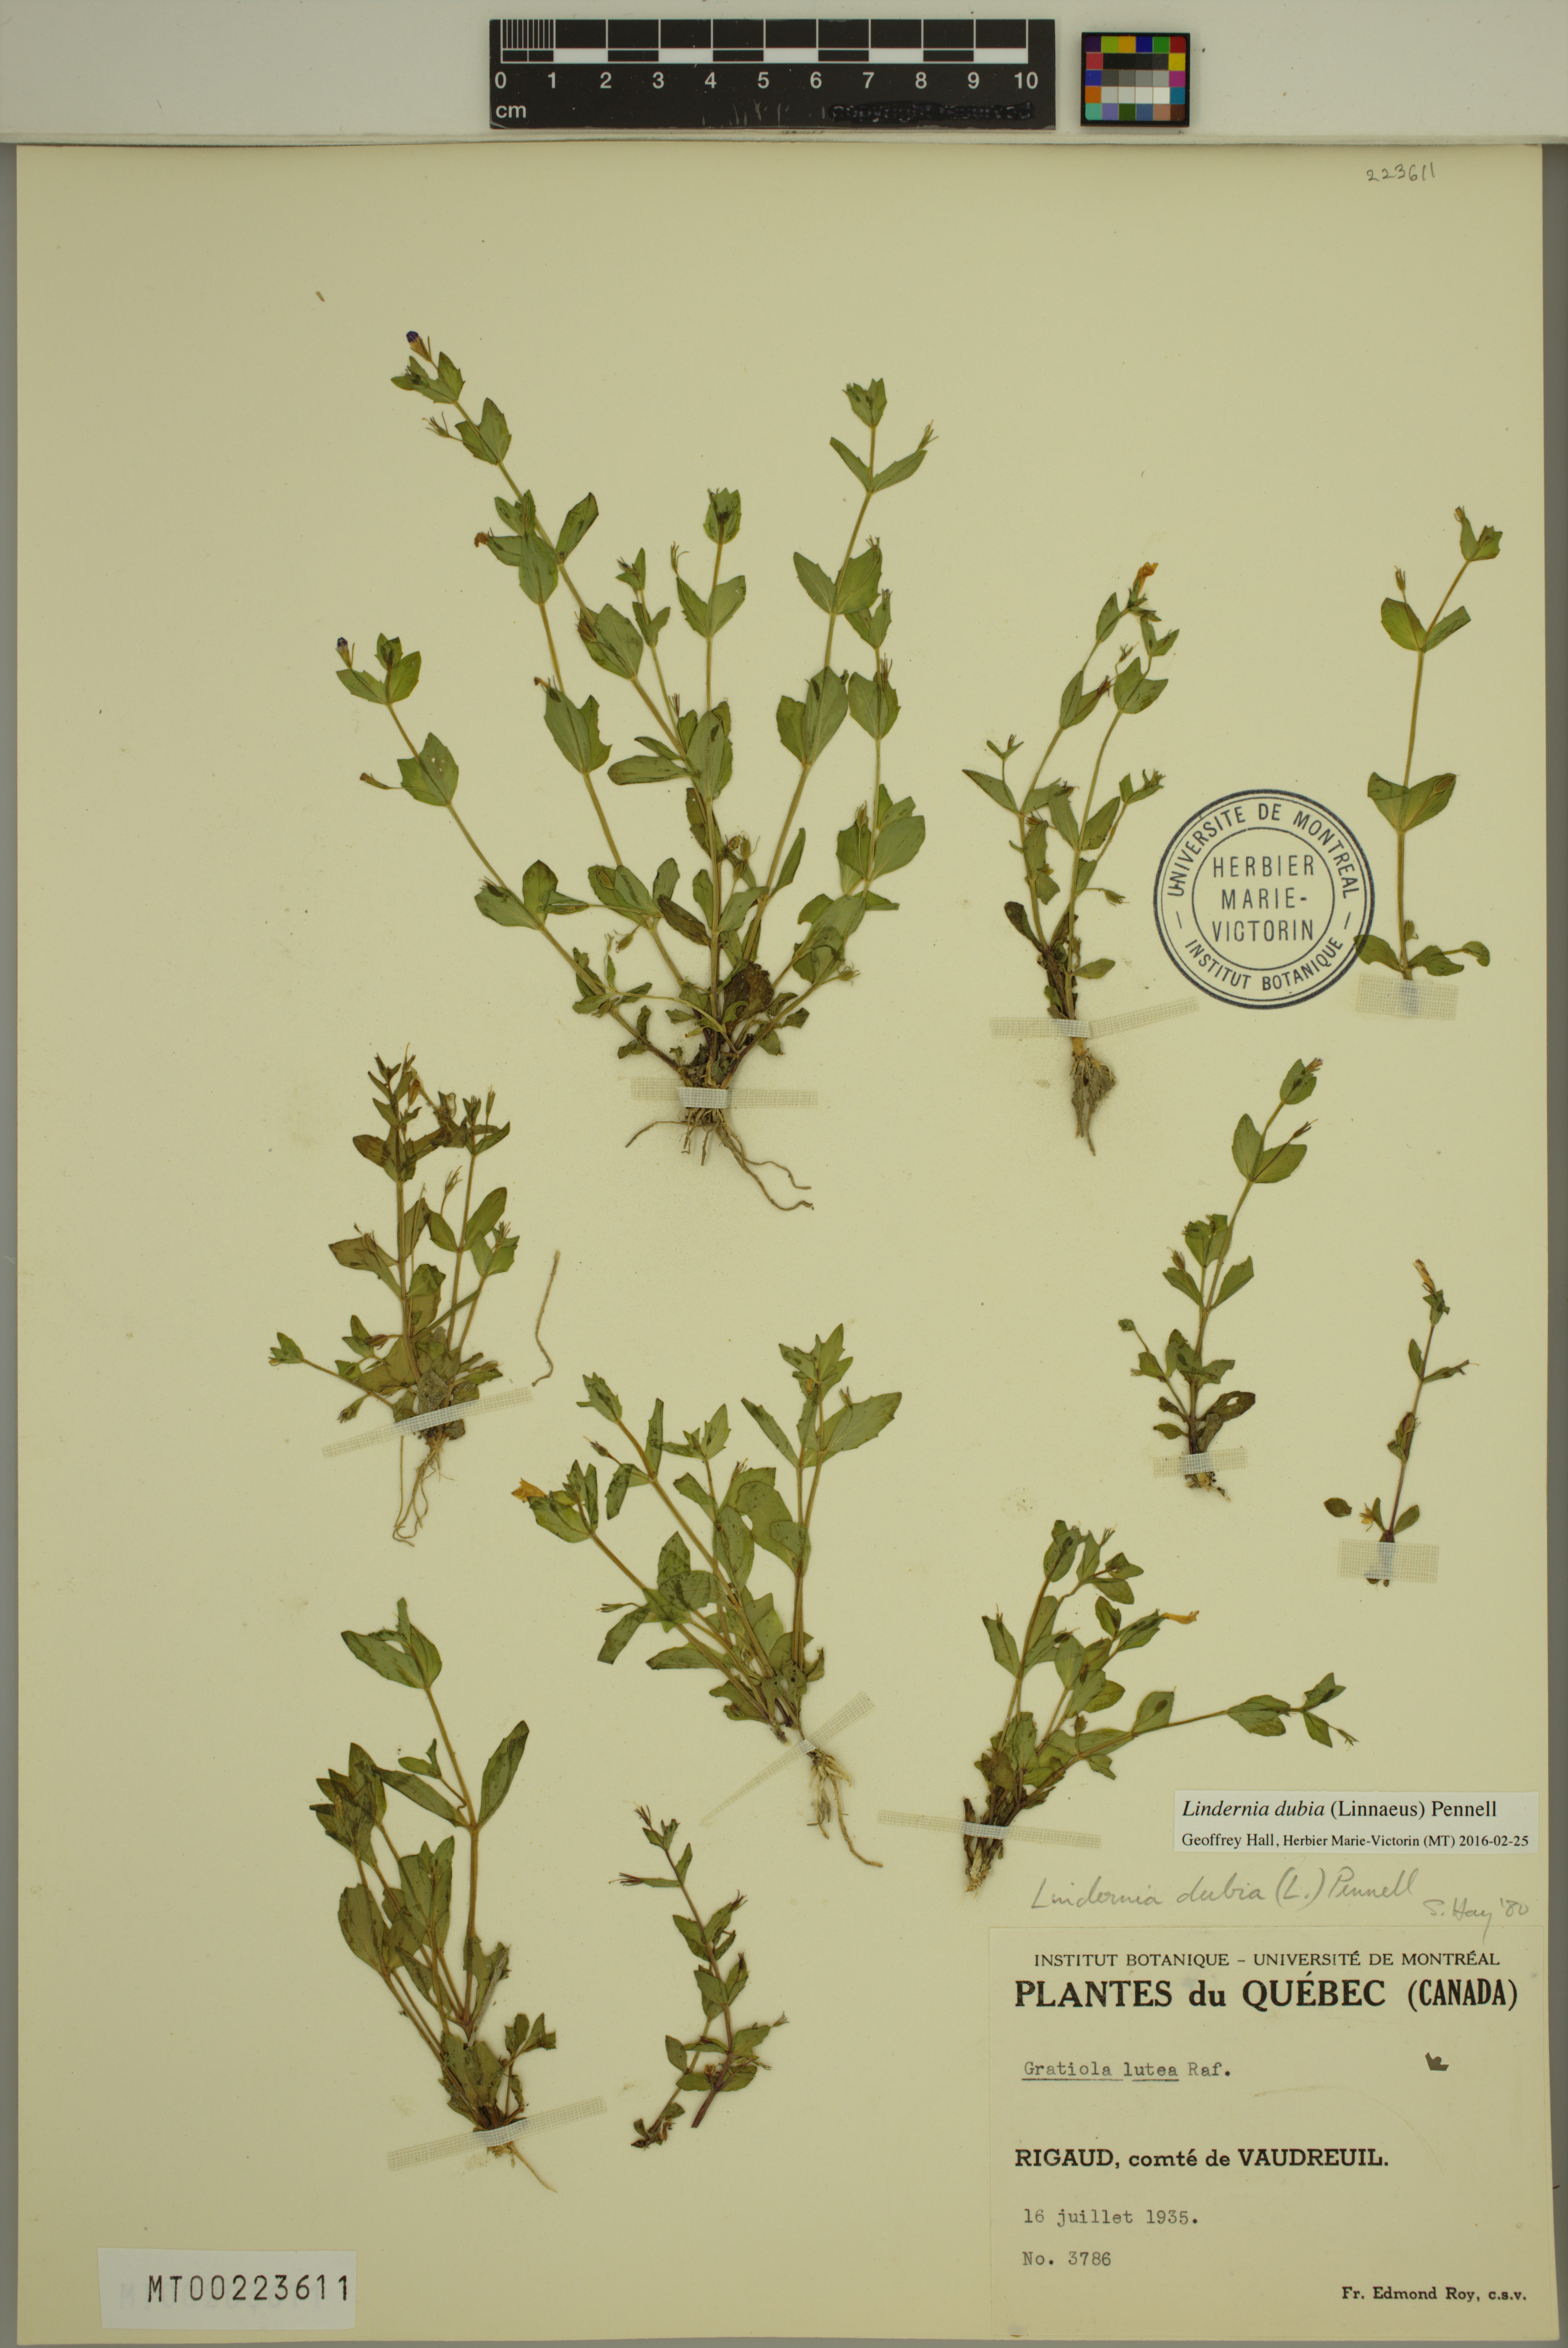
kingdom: Plantae
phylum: Tracheophyta
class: Magnoliopsida
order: Lamiales
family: Linderniaceae
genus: Lindernia
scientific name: Lindernia dubia
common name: Annual false pimpernel
